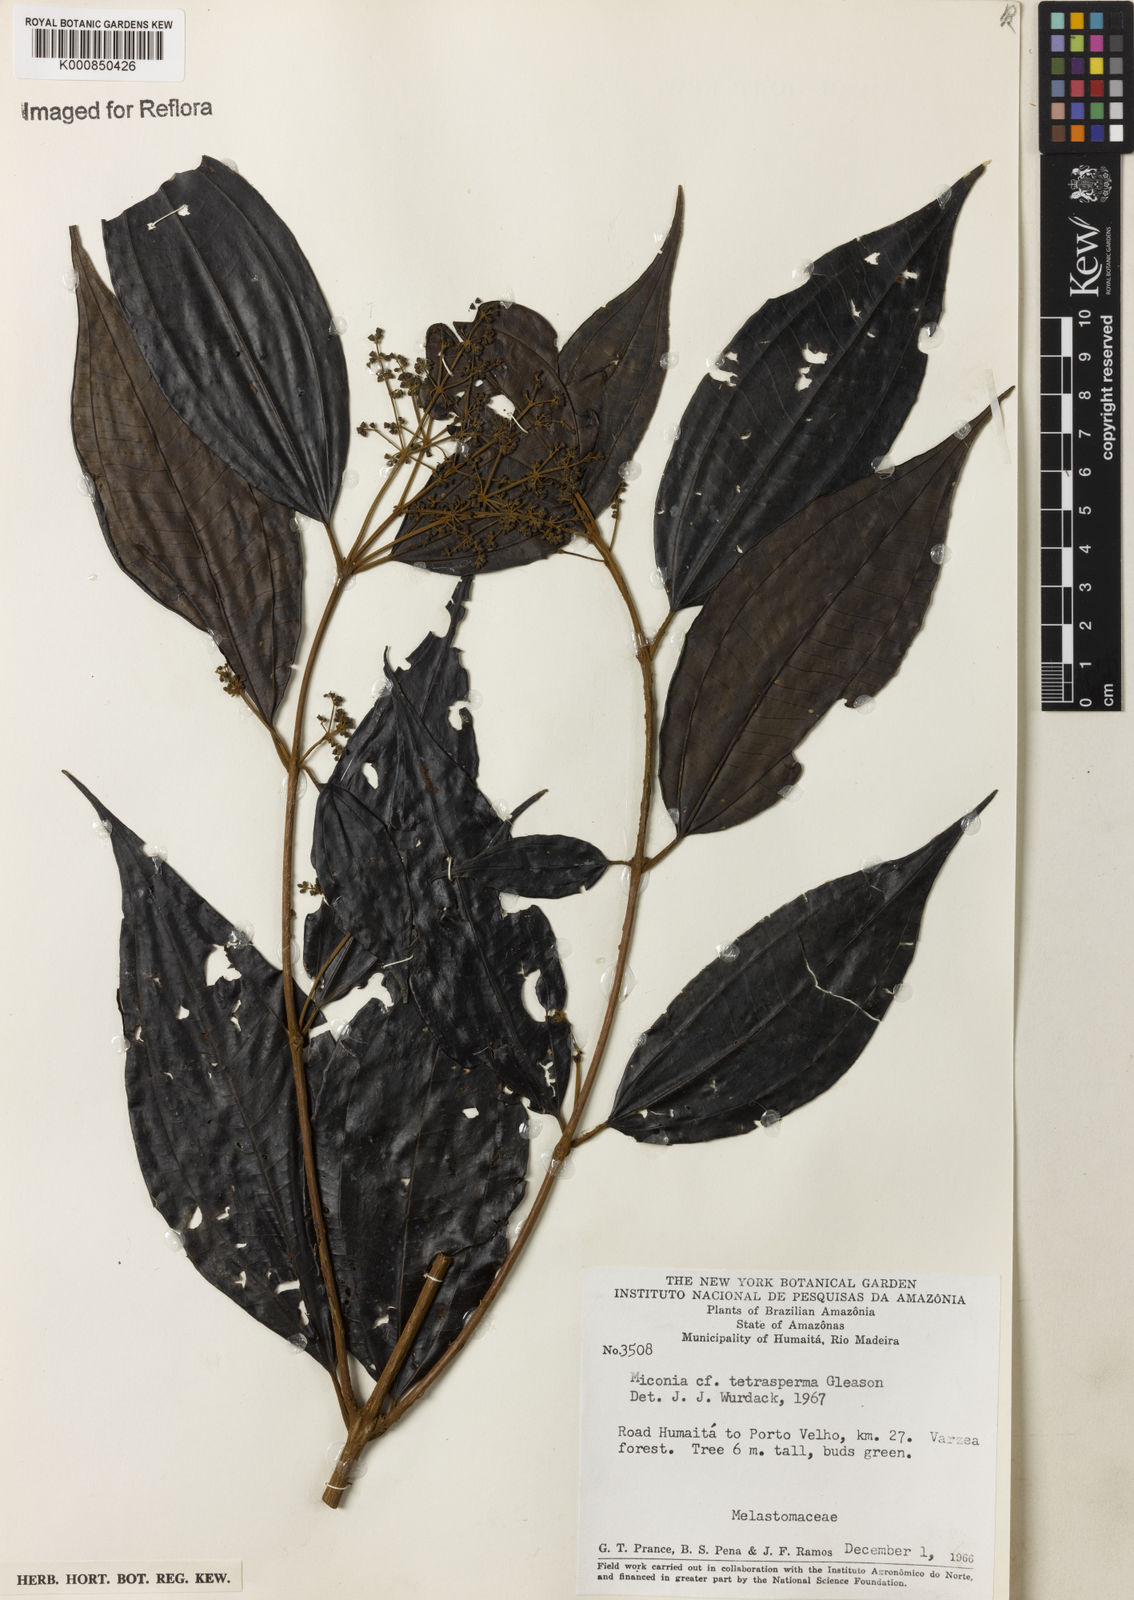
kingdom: Plantae
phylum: Tracheophyta
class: Magnoliopsida
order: Myrtales
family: Melastomataceae
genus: Miconia
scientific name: Miconia tetrasperma
